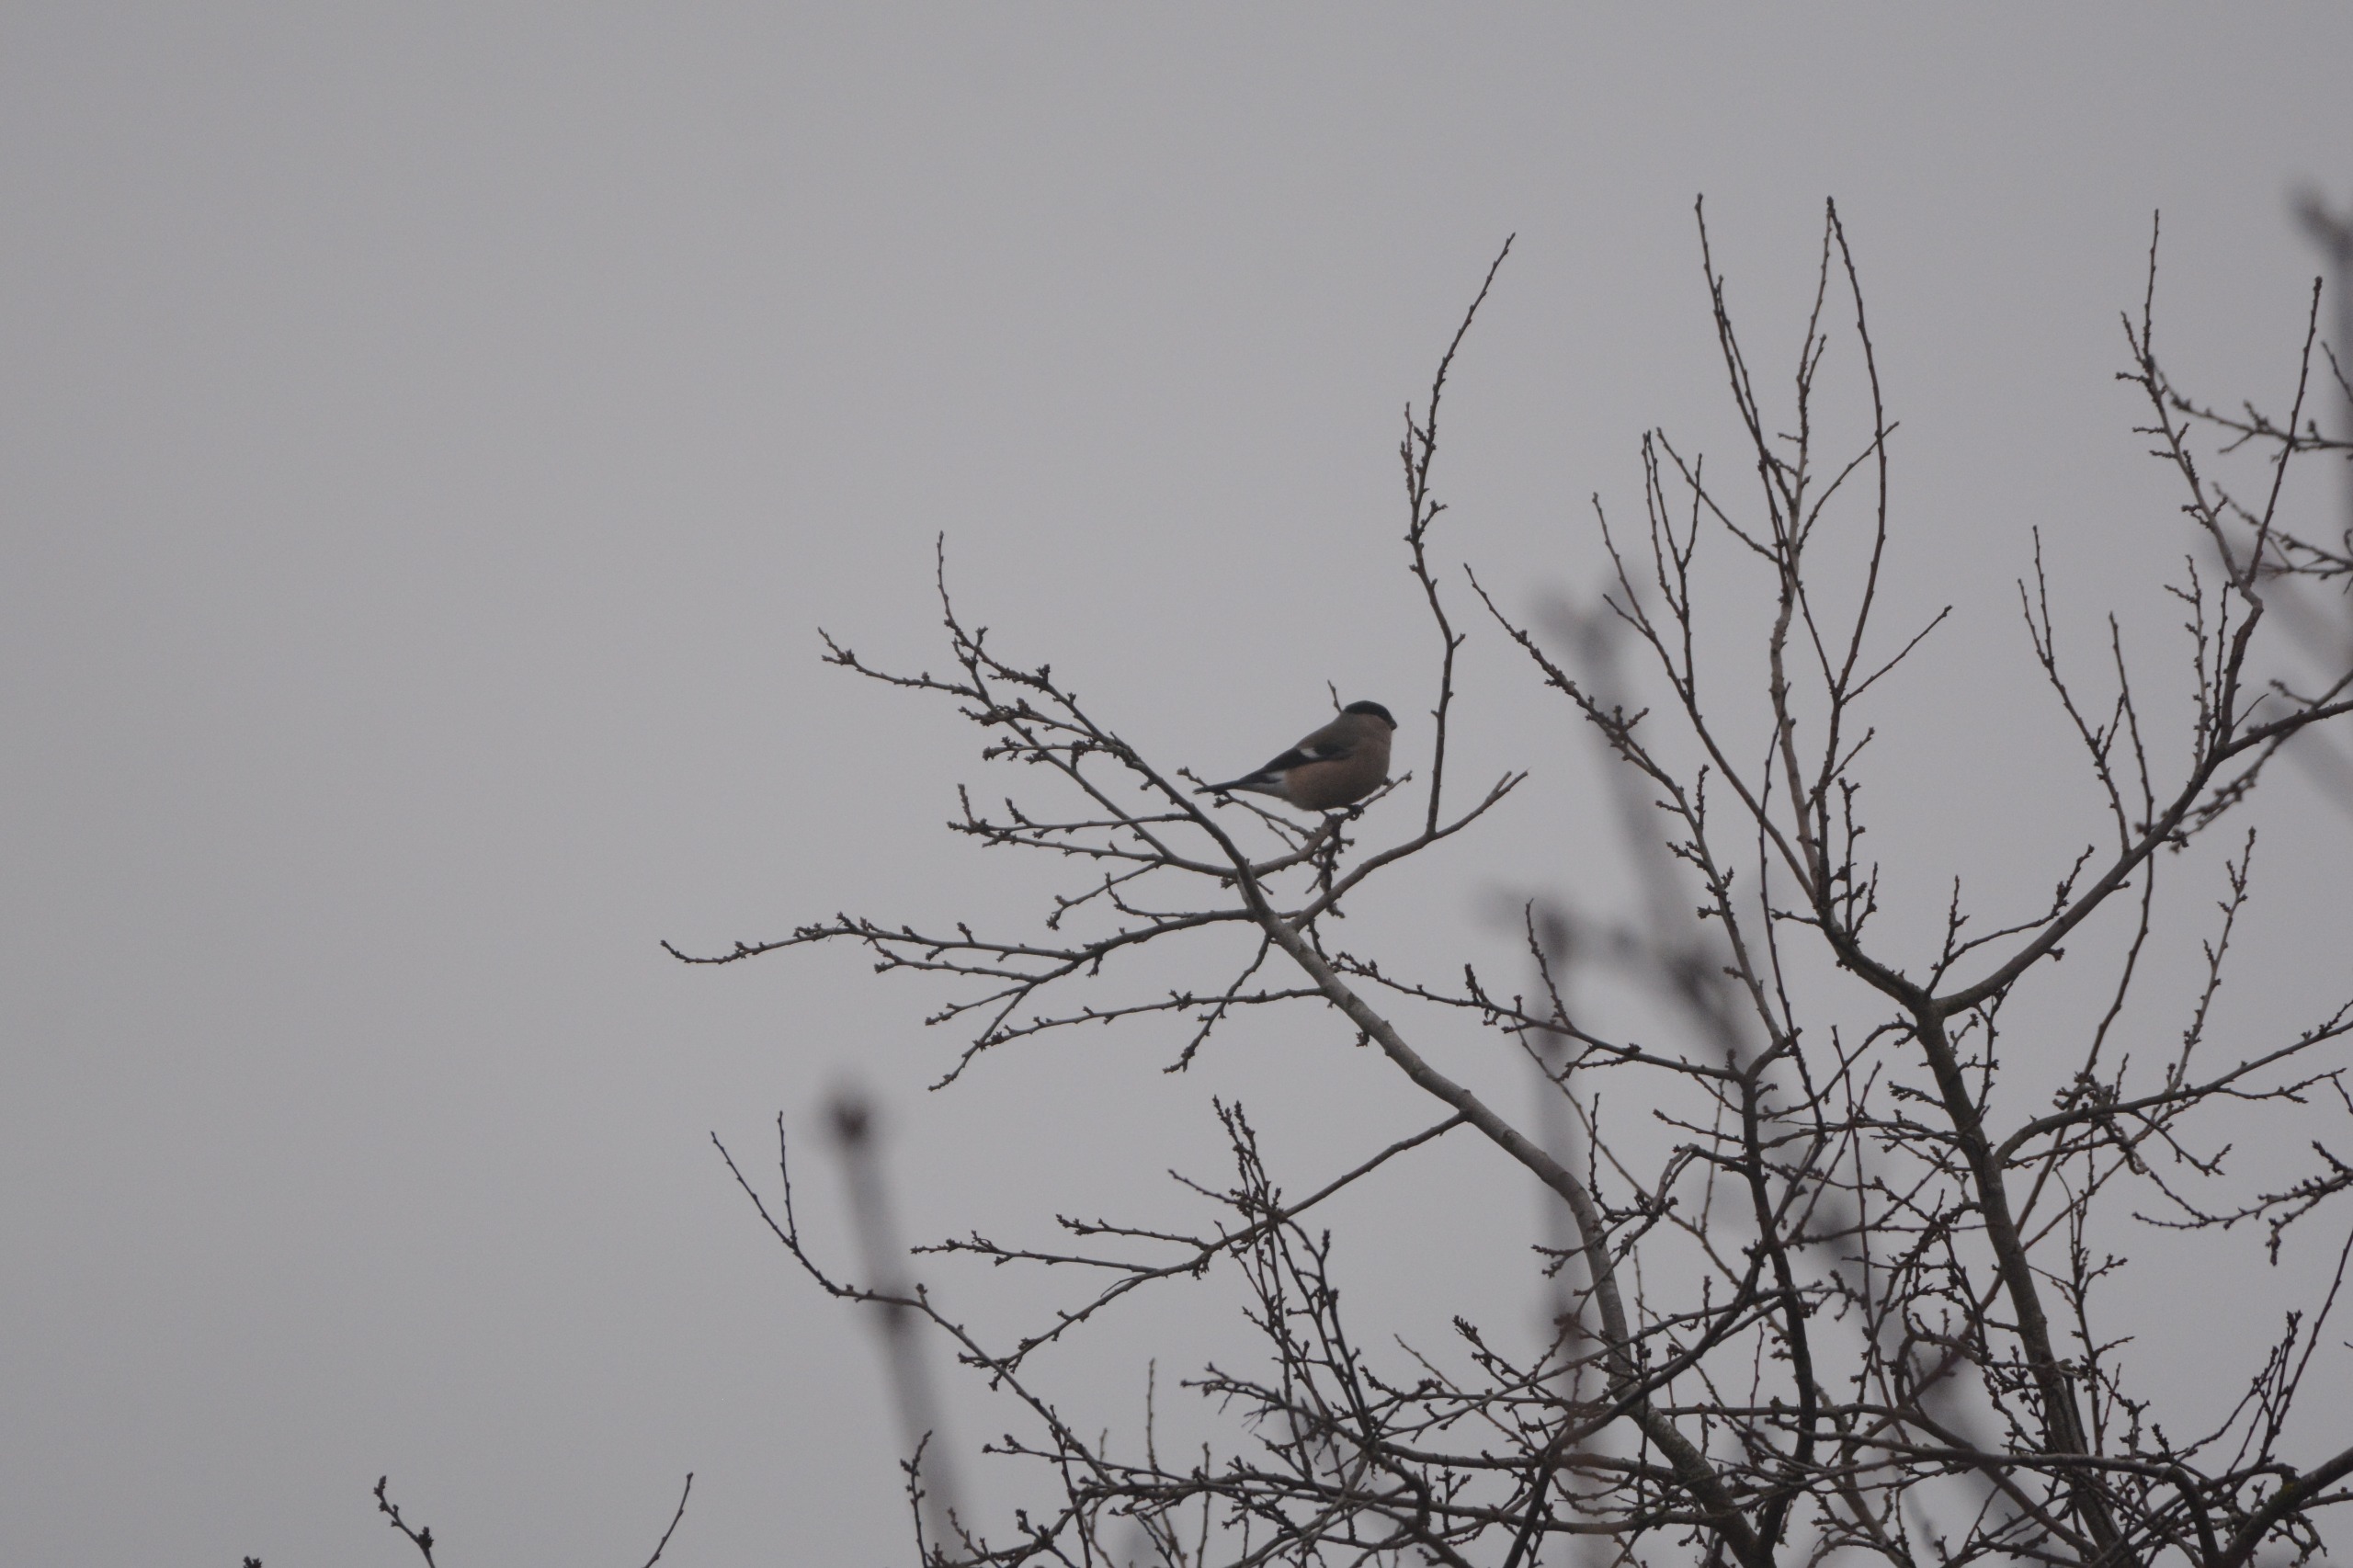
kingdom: Animalia
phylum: Chordata
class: Aves
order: Passeriformes
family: Fringillidae
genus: Pyrrhula
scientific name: Pyrrhula pyrrhula
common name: Dompap
